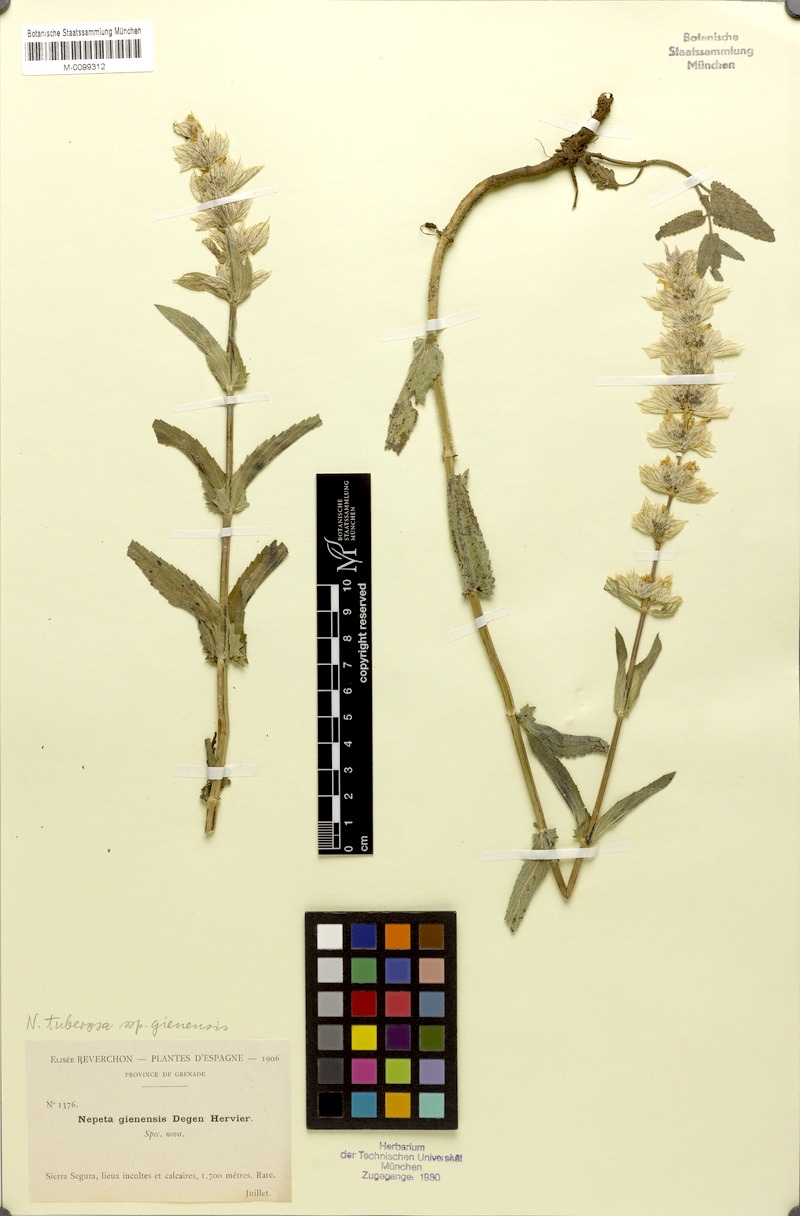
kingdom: Plantae
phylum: Tracheophyta
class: Magnoliopsida
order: Lamiales
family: Lamiaceae
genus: Nepeta
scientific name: Nepeta tuberosa
